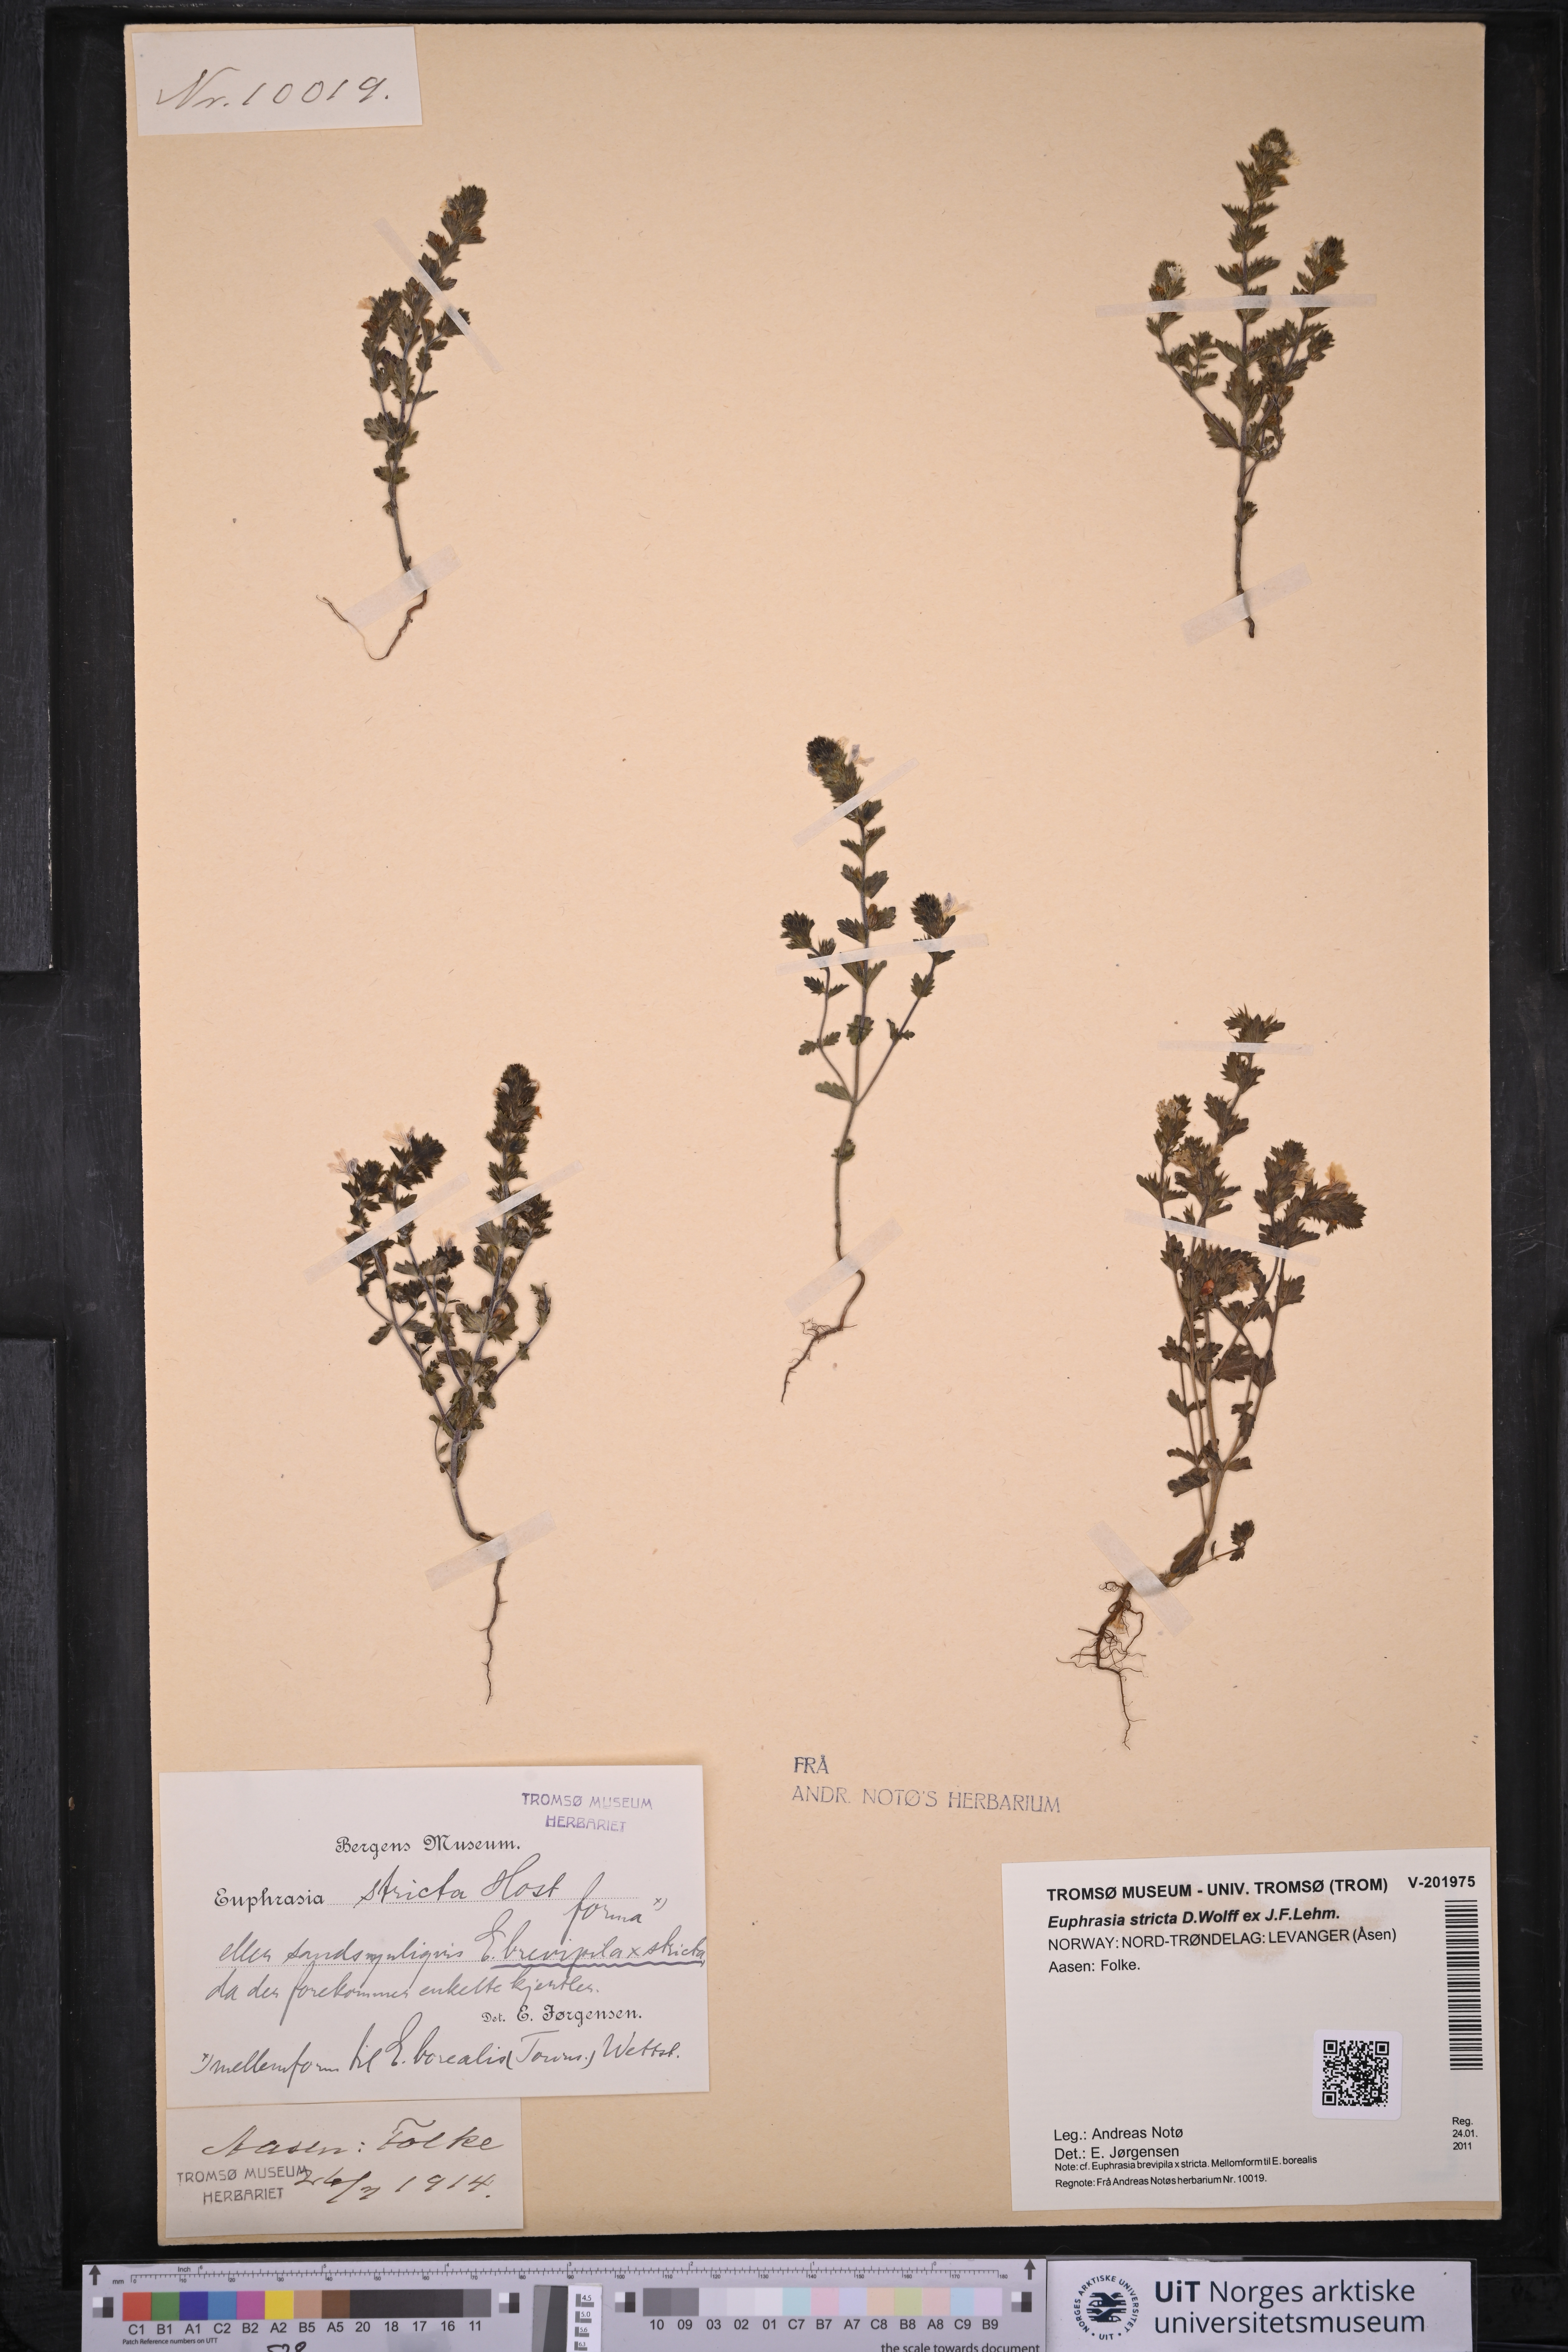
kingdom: Plantae
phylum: Tracheophyta
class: Magnoliopsida
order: Lamiales
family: Orobanchaceae
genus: Euphrasia
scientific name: Euphrasia stricta
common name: Drug eyebright
